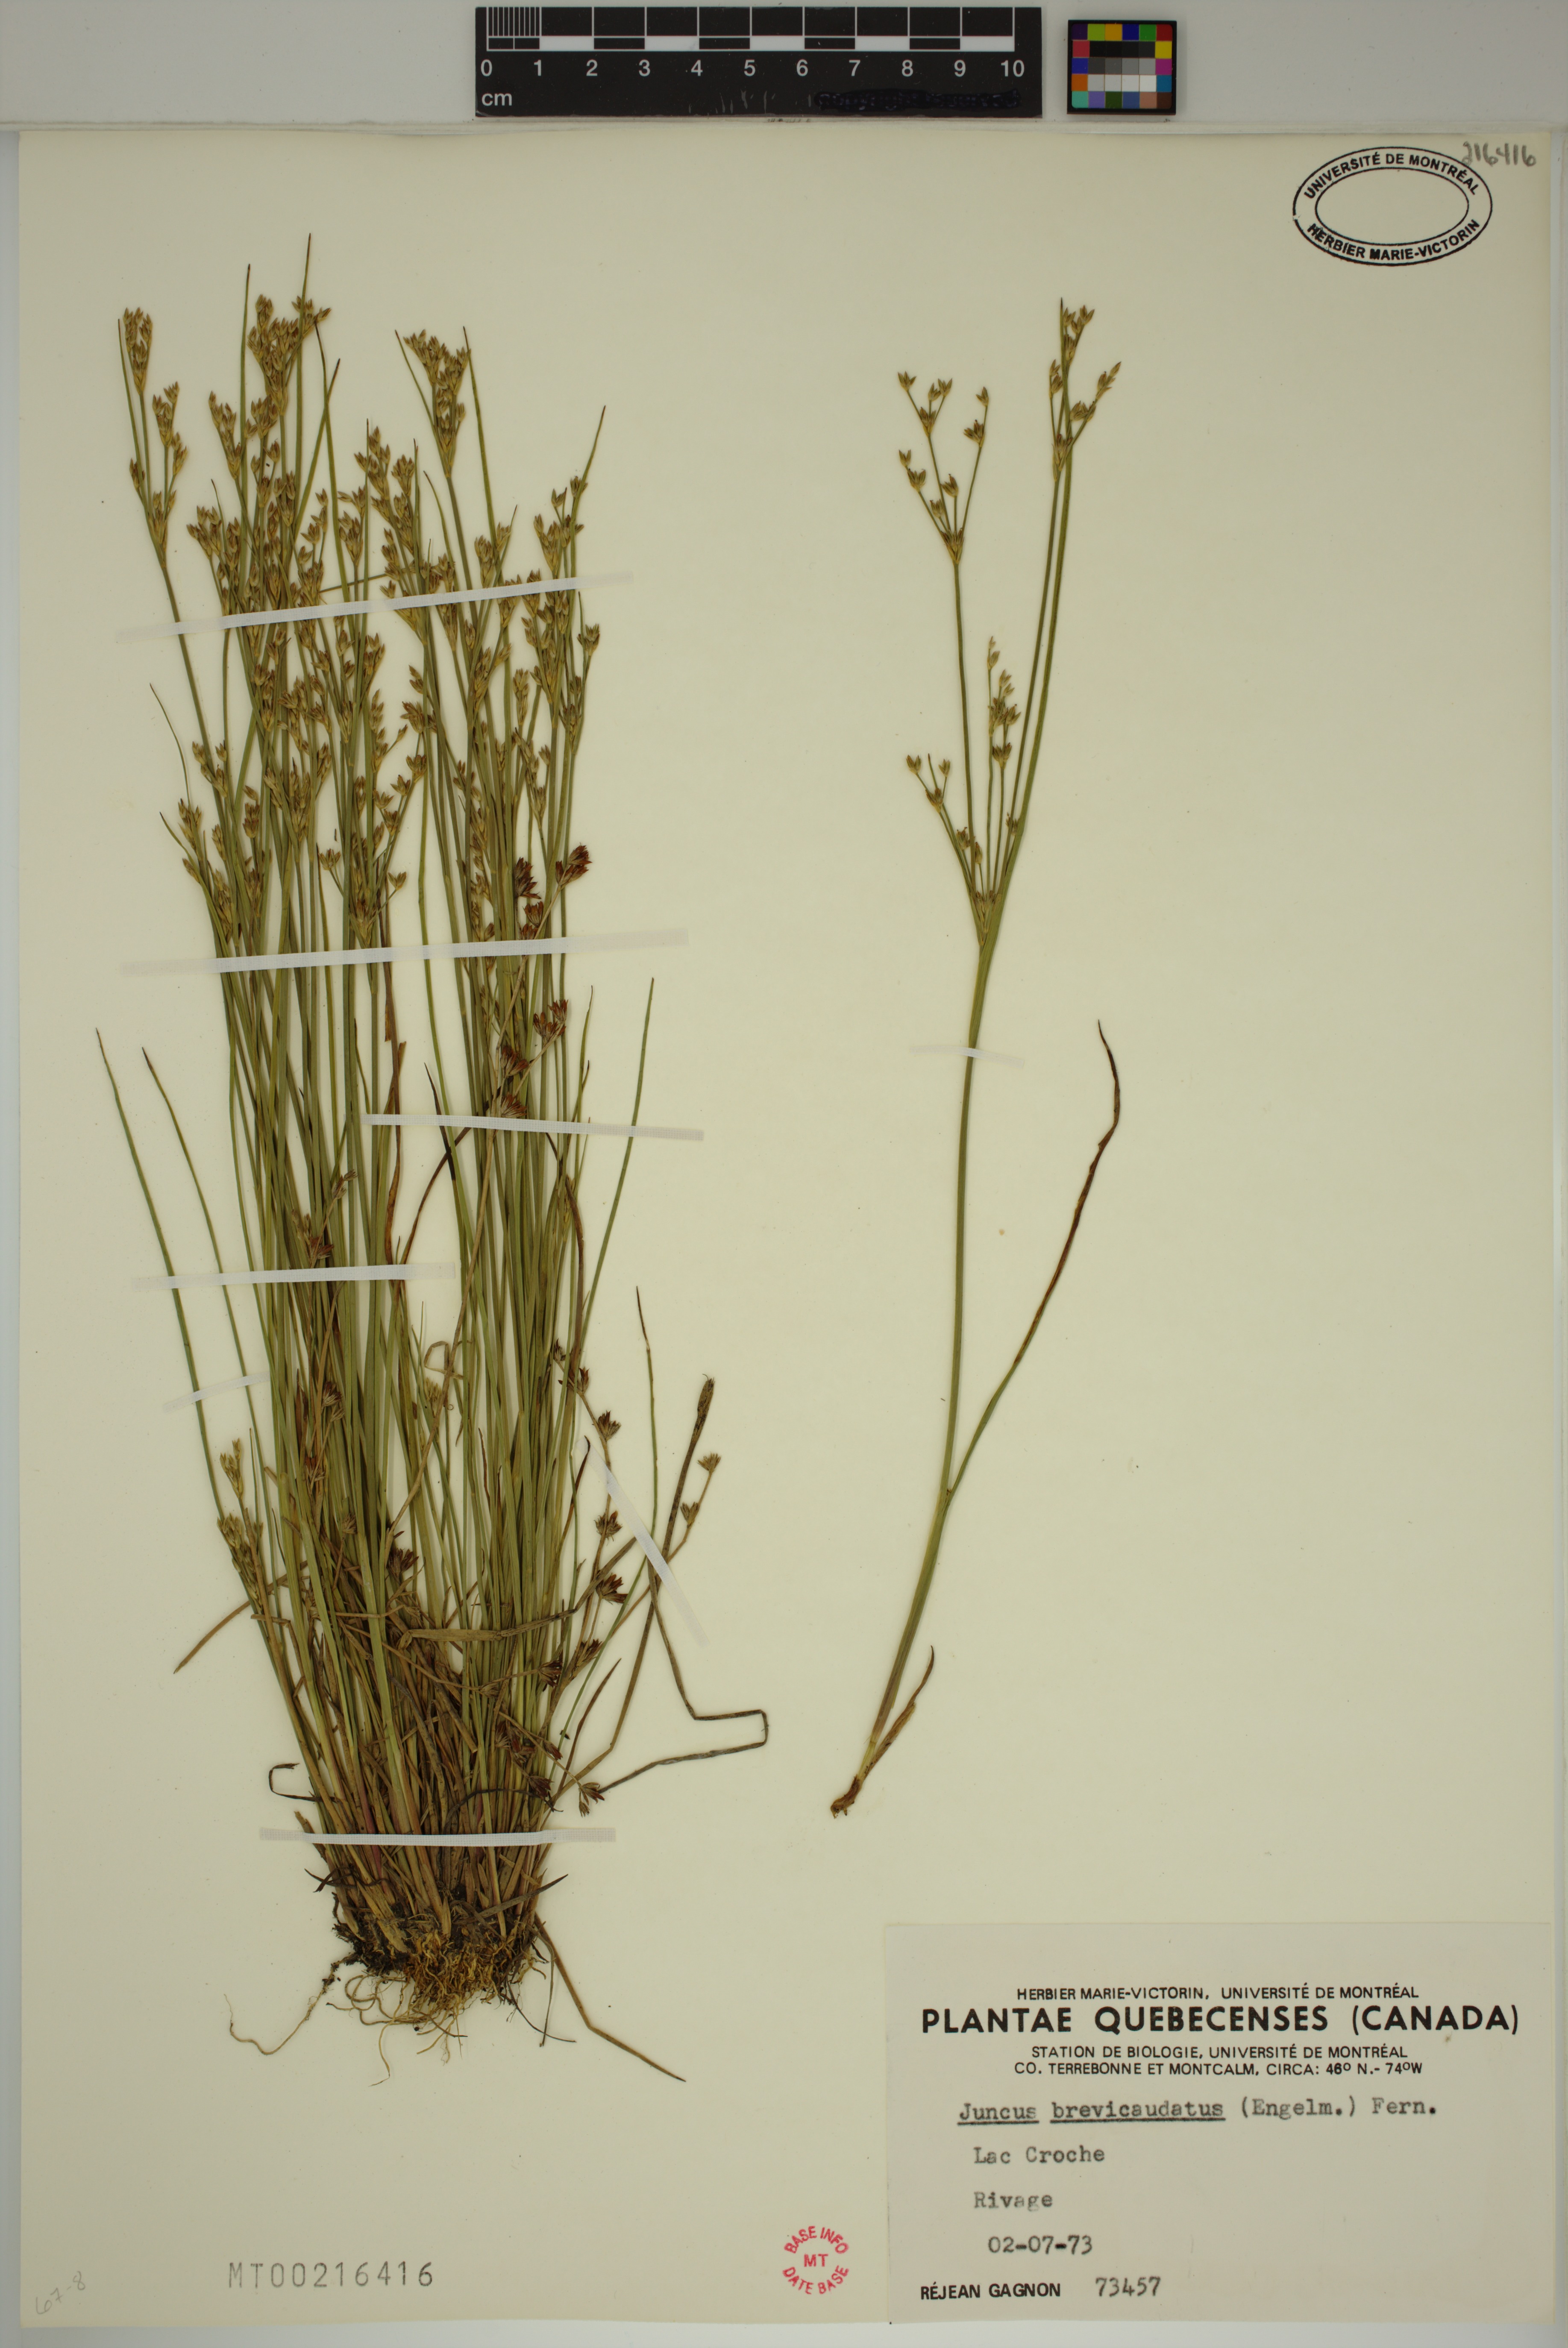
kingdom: Plantae
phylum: Tracheophyta
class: Liliopsida
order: Poales
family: Juncaceae
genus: Juncus
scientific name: Juncus brevicaudatus
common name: Narrow-panicle rush
